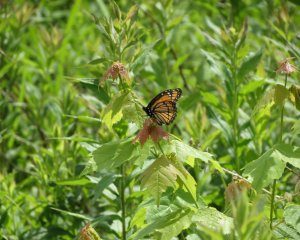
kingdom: Animalia
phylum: Arthropoda
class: Insecta
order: Lepidoptera
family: Nymphalidae
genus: Limenitis
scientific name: Limenitis archippus
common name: Viceroy
